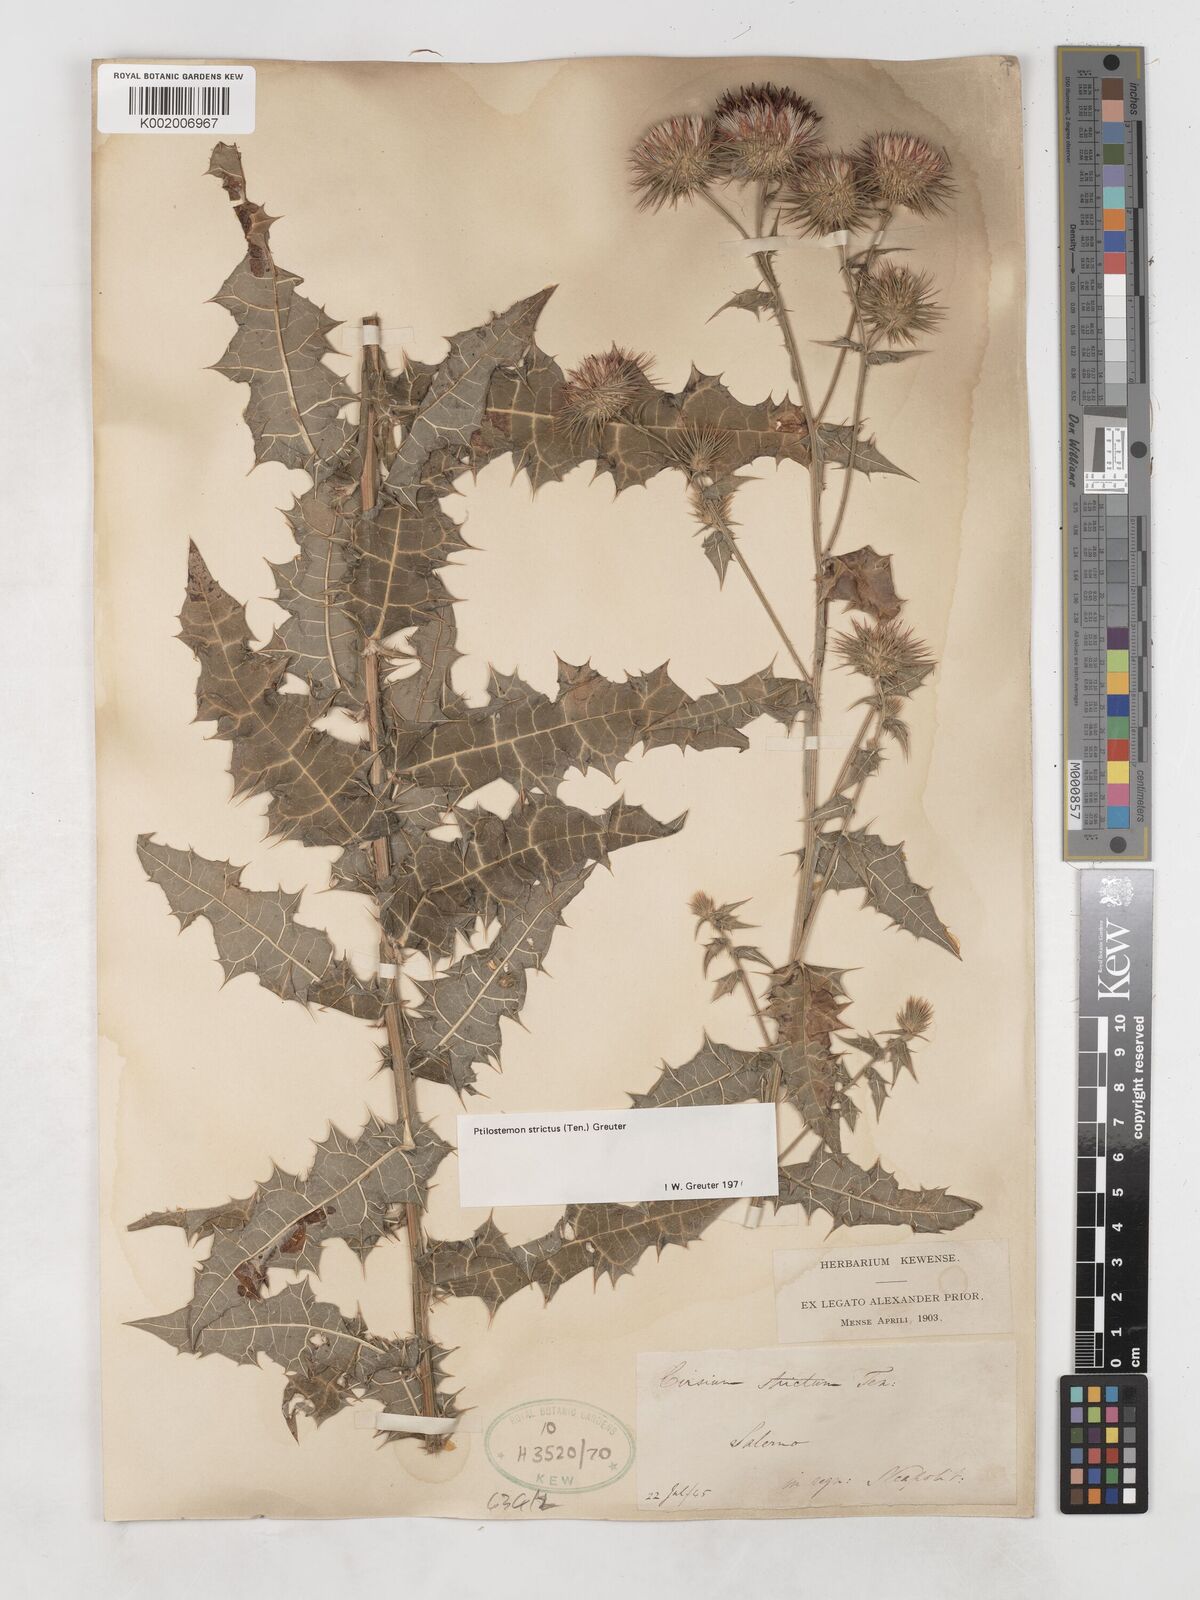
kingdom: Plantae
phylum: Tracheophyta
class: Magnoliopsida
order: Asterales
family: Asteraceae
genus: Ptilostemon
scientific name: Ptilostemon strictus
